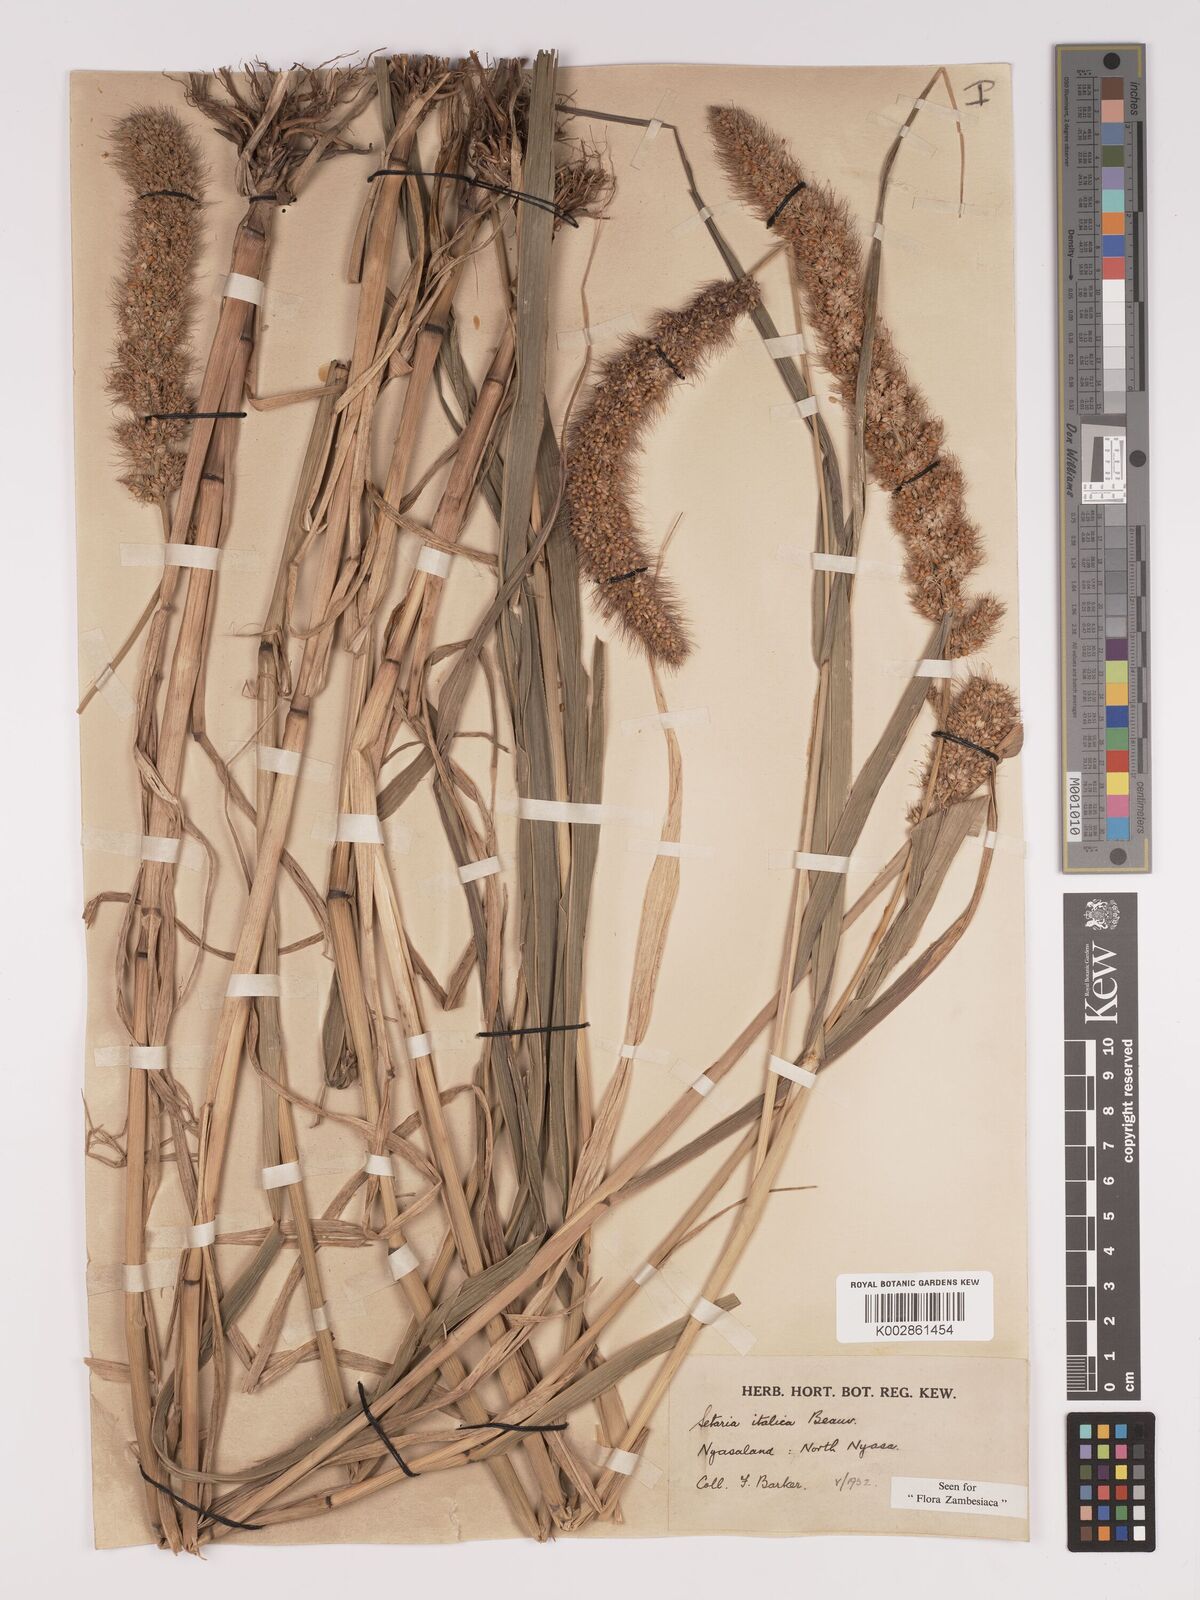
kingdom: Plantae
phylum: Tracheophyta
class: Liliopsida
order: Poales
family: Poaceae
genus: Setaria
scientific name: Setaria italica
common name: Foxtail bristle-grass
